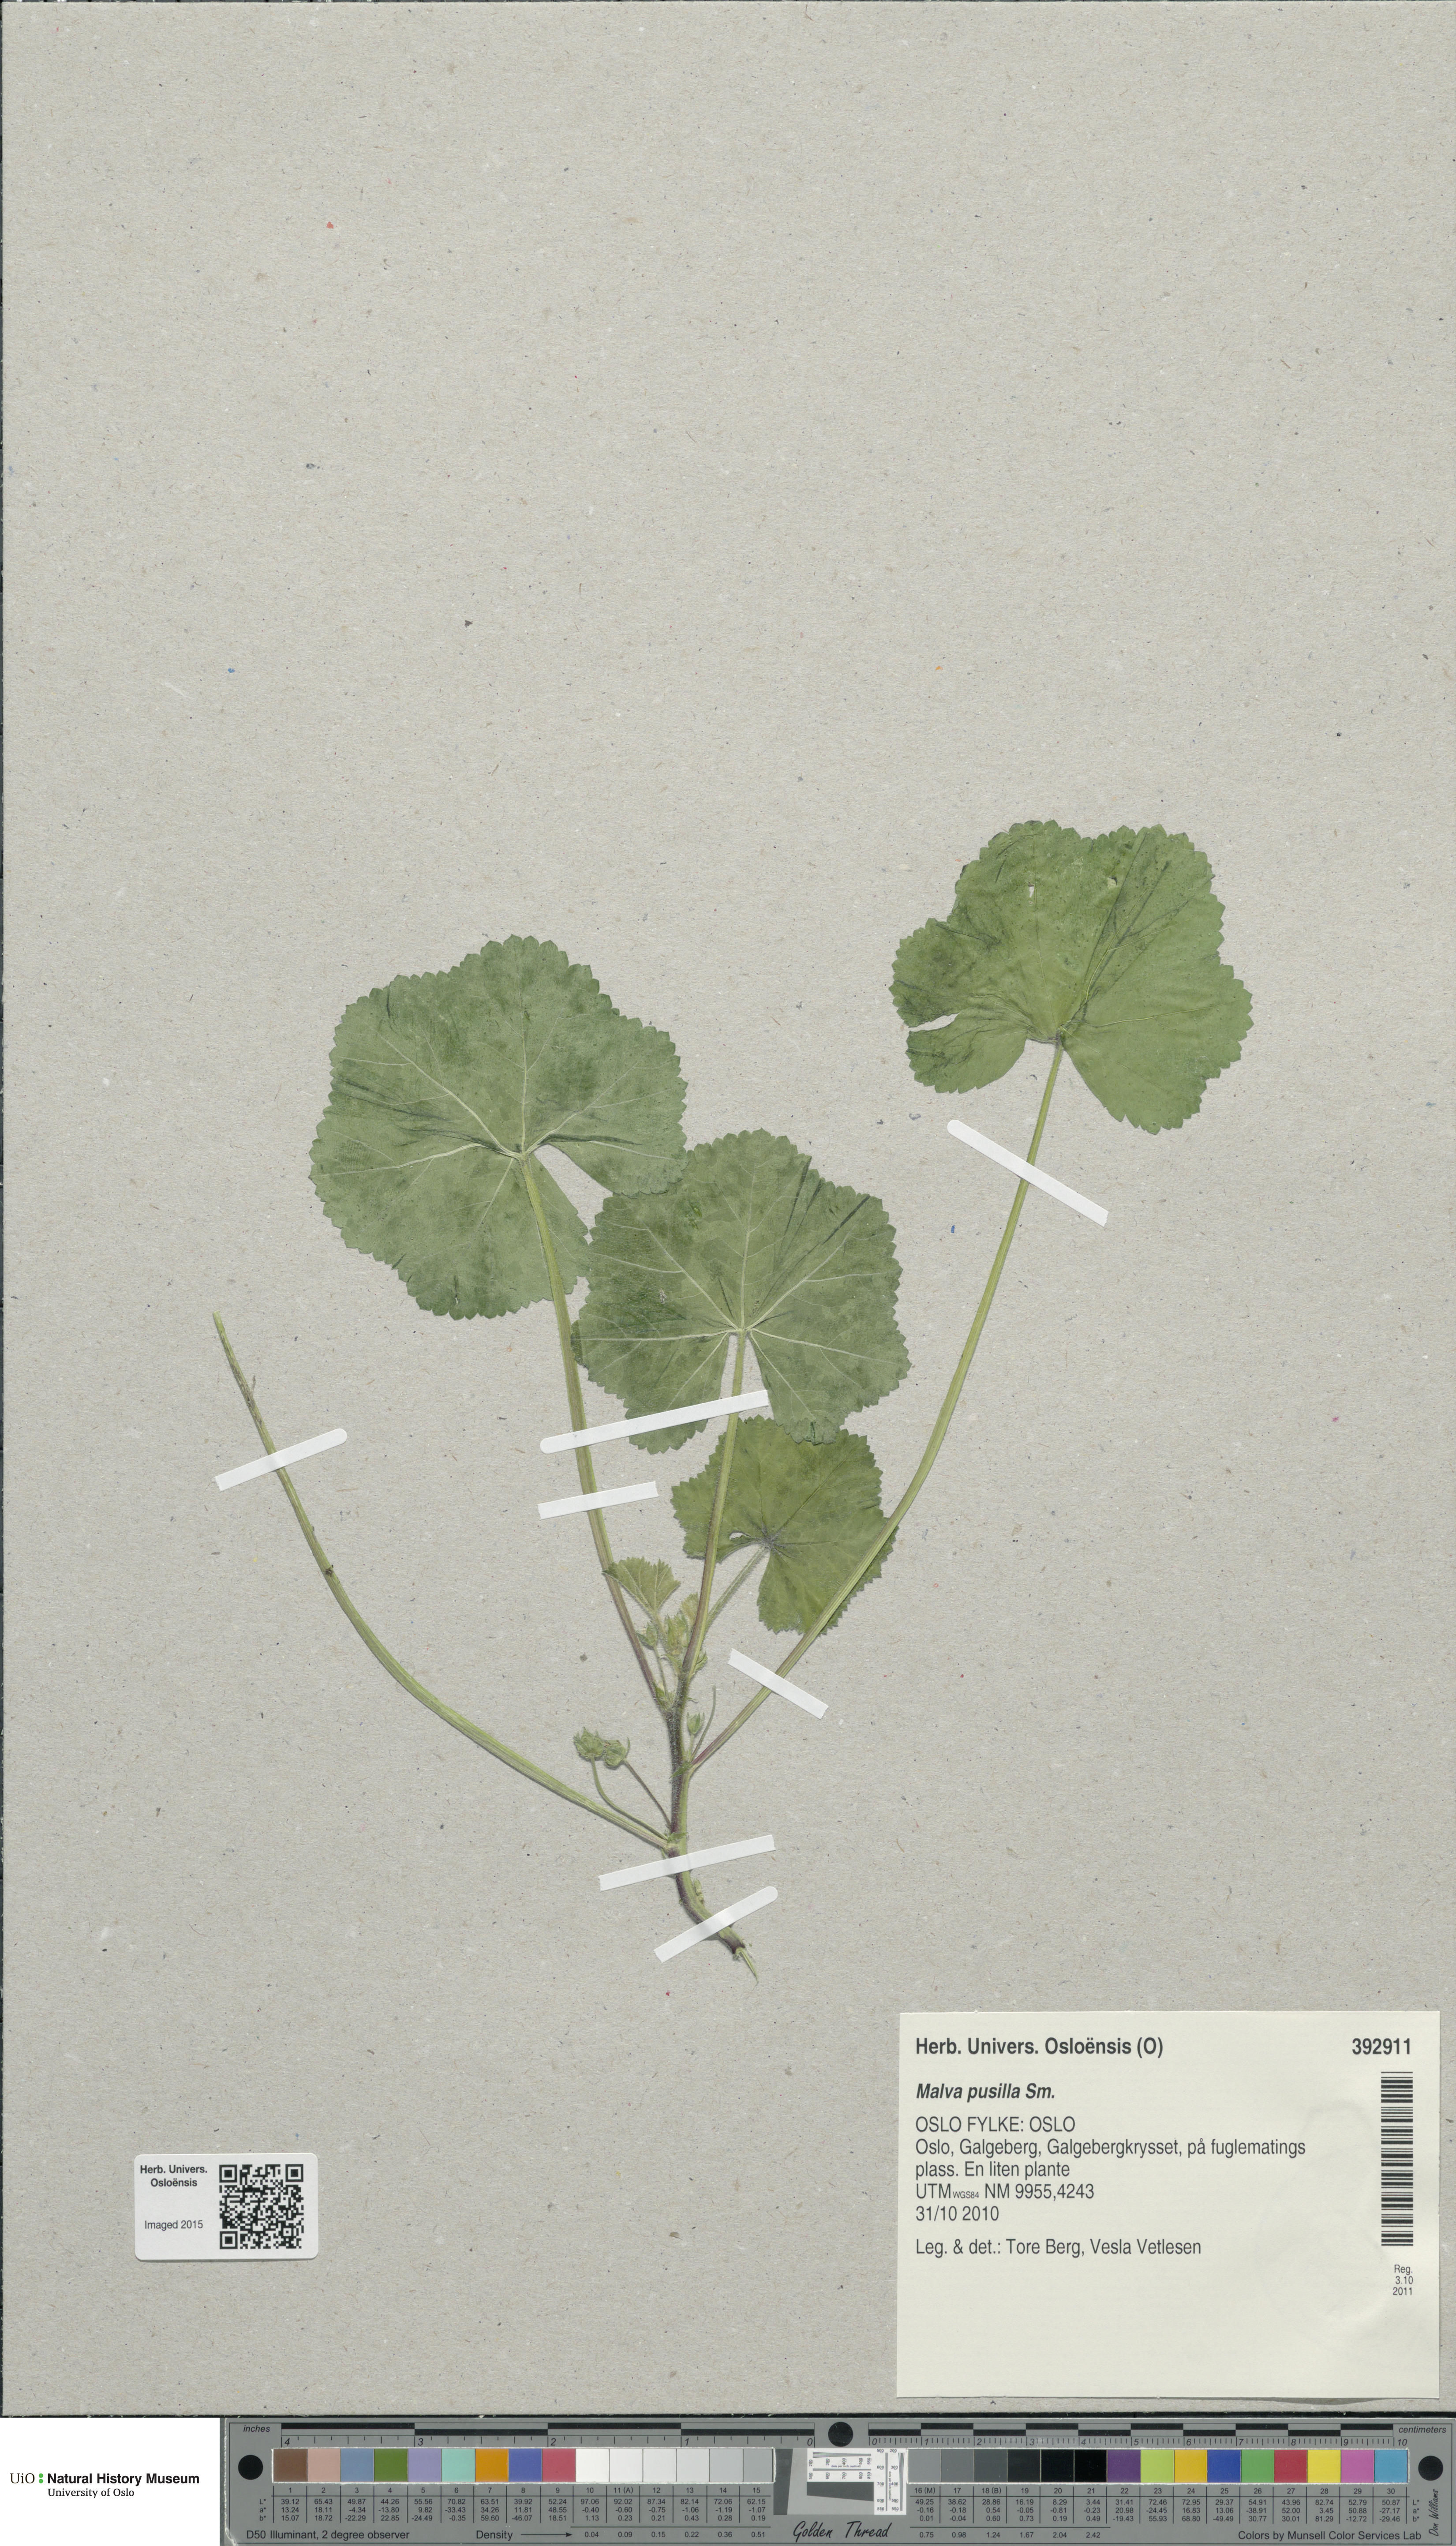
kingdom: Plantae
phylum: Tracheophyta
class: Magnoliopsida
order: Malvales
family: Malvaceae
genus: Malva
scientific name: Malva pusilla
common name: Small mallow
